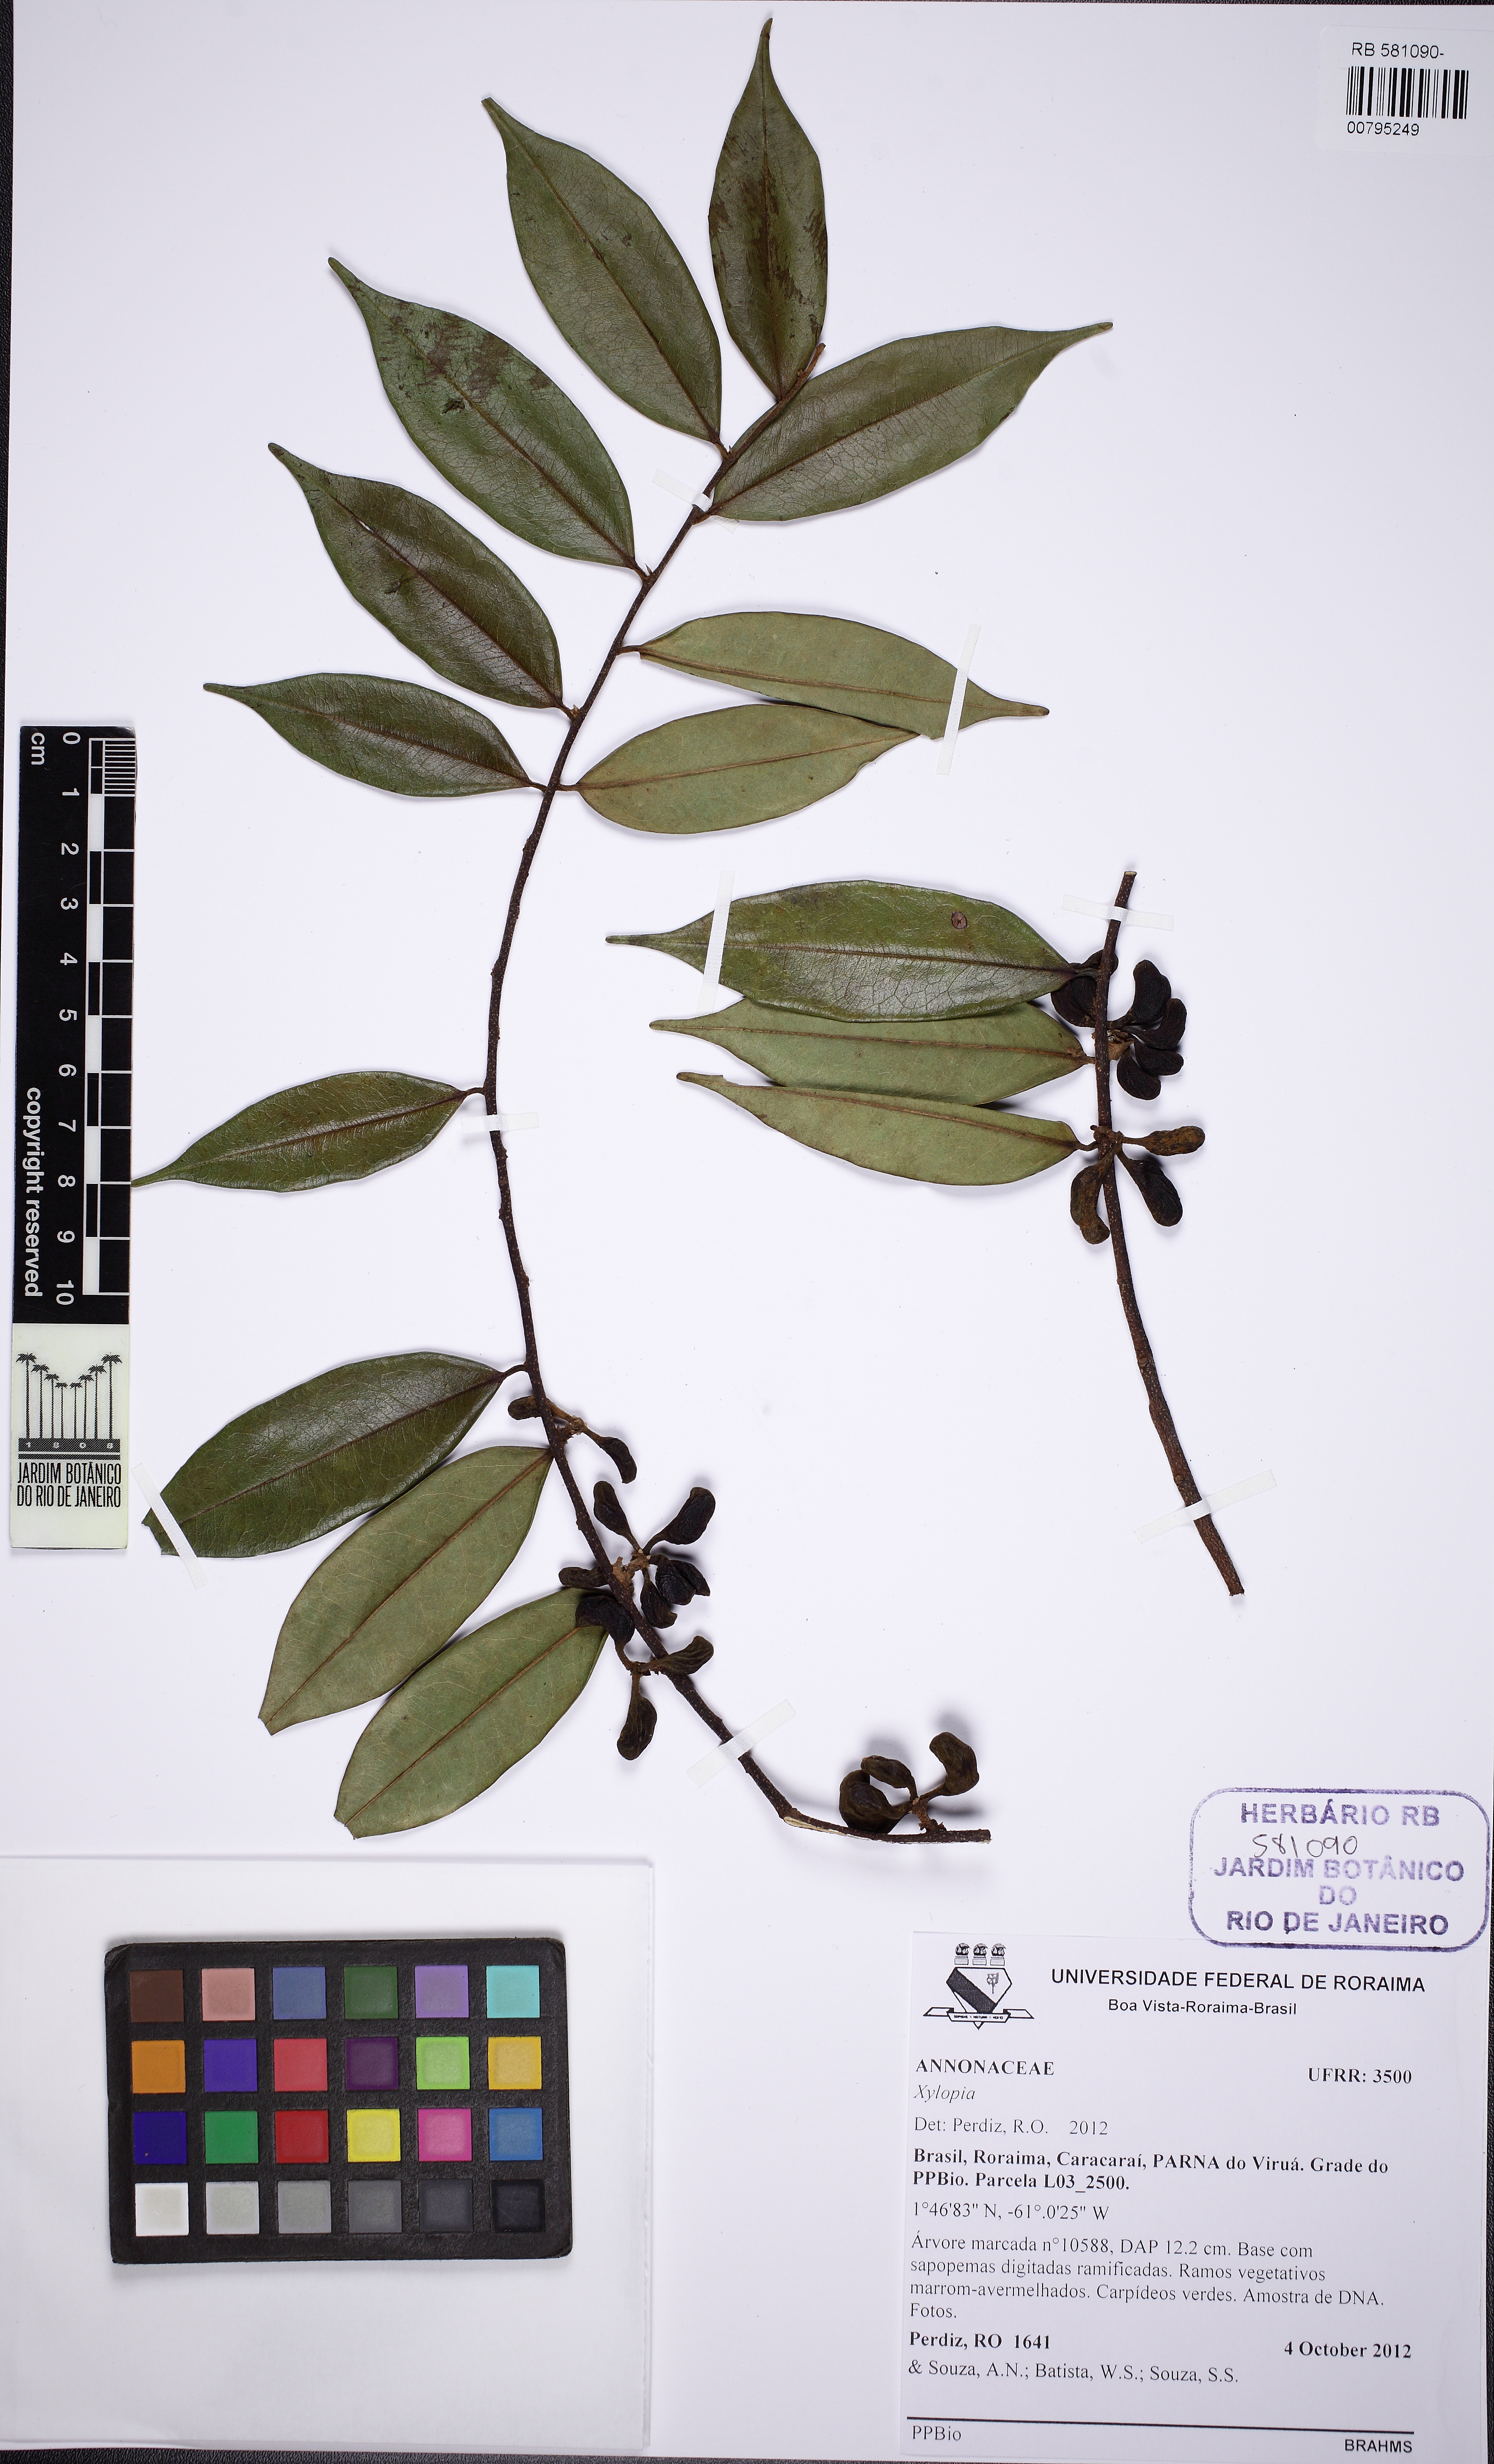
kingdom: Plantae
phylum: Tracheophyta
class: Magnoliopsida
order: Magnoliales
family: Annonaceae
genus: Xylopia
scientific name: Xylopia calophylla
